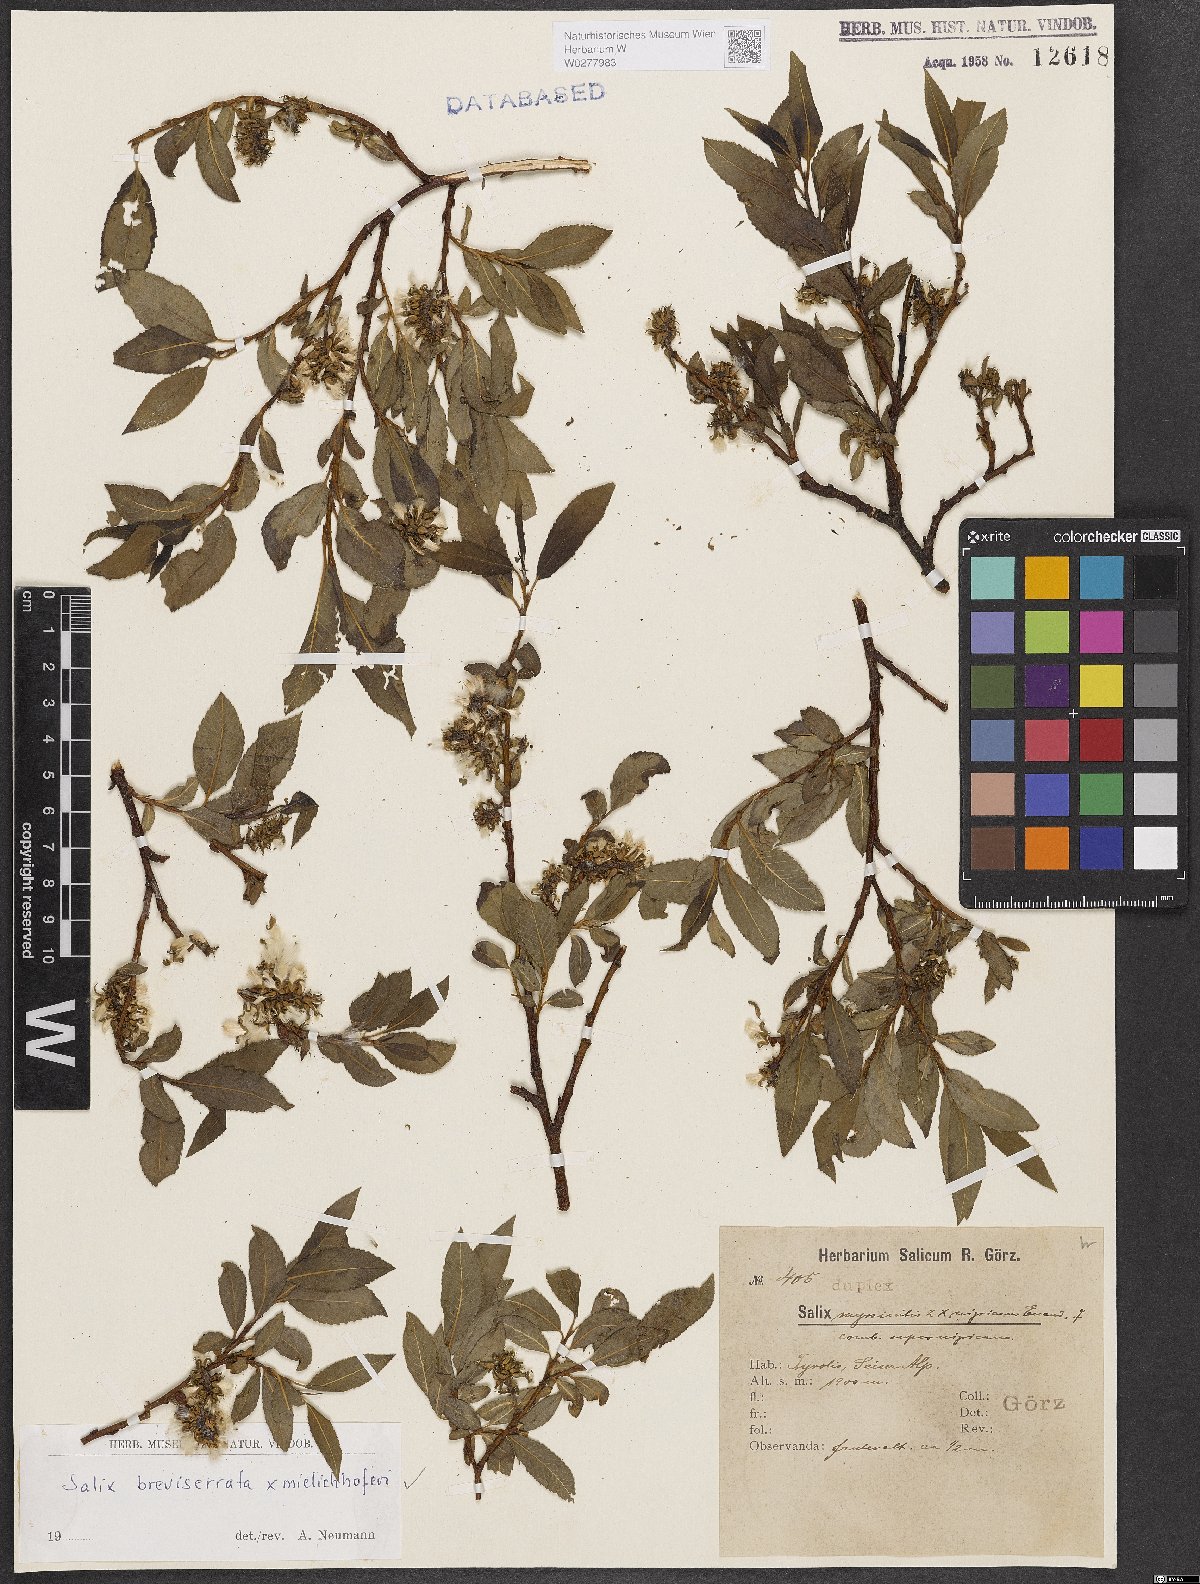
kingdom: Plantae
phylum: Tracheophyta
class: Magnoliopsida
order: Malpighiales
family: Salicaceae
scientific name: Salicaceae
